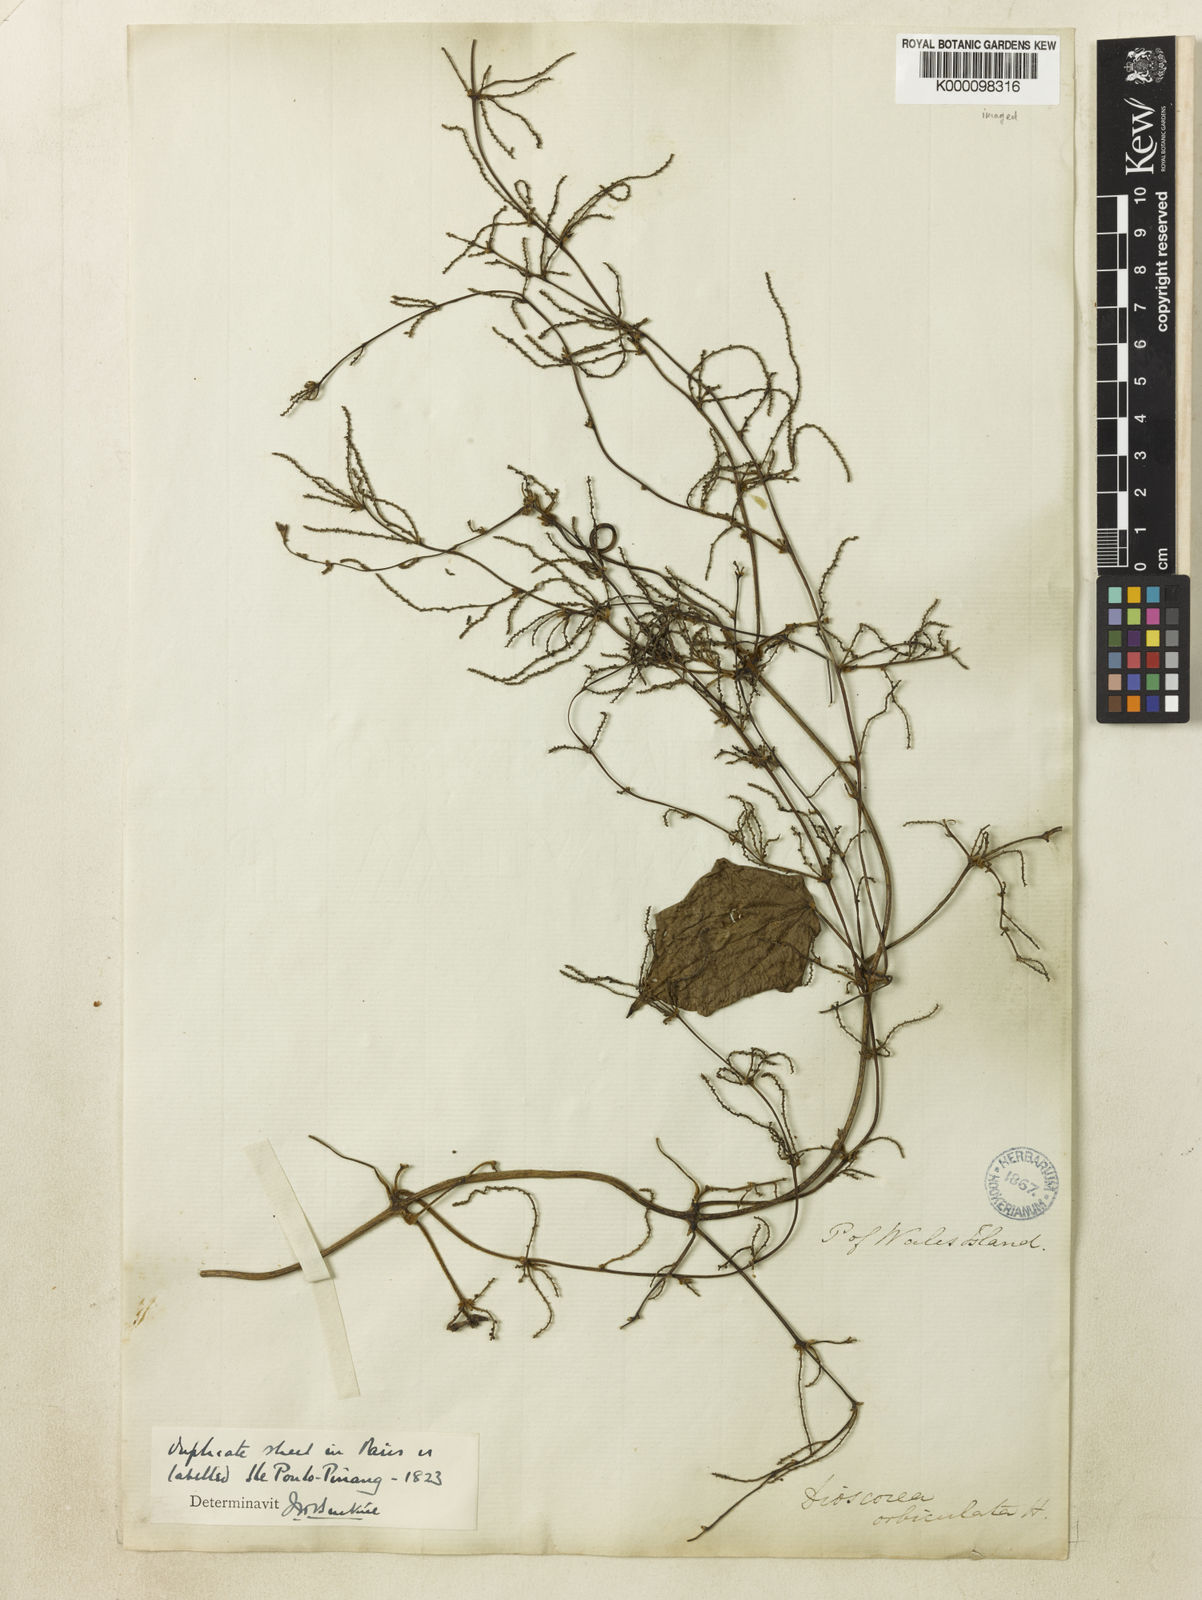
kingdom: Plantae
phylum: Tracheophyta
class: Liliopsida
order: Dioscoreales
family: Dioscoreaceae
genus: Dioscorea
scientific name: Dioscorea orbiculata
